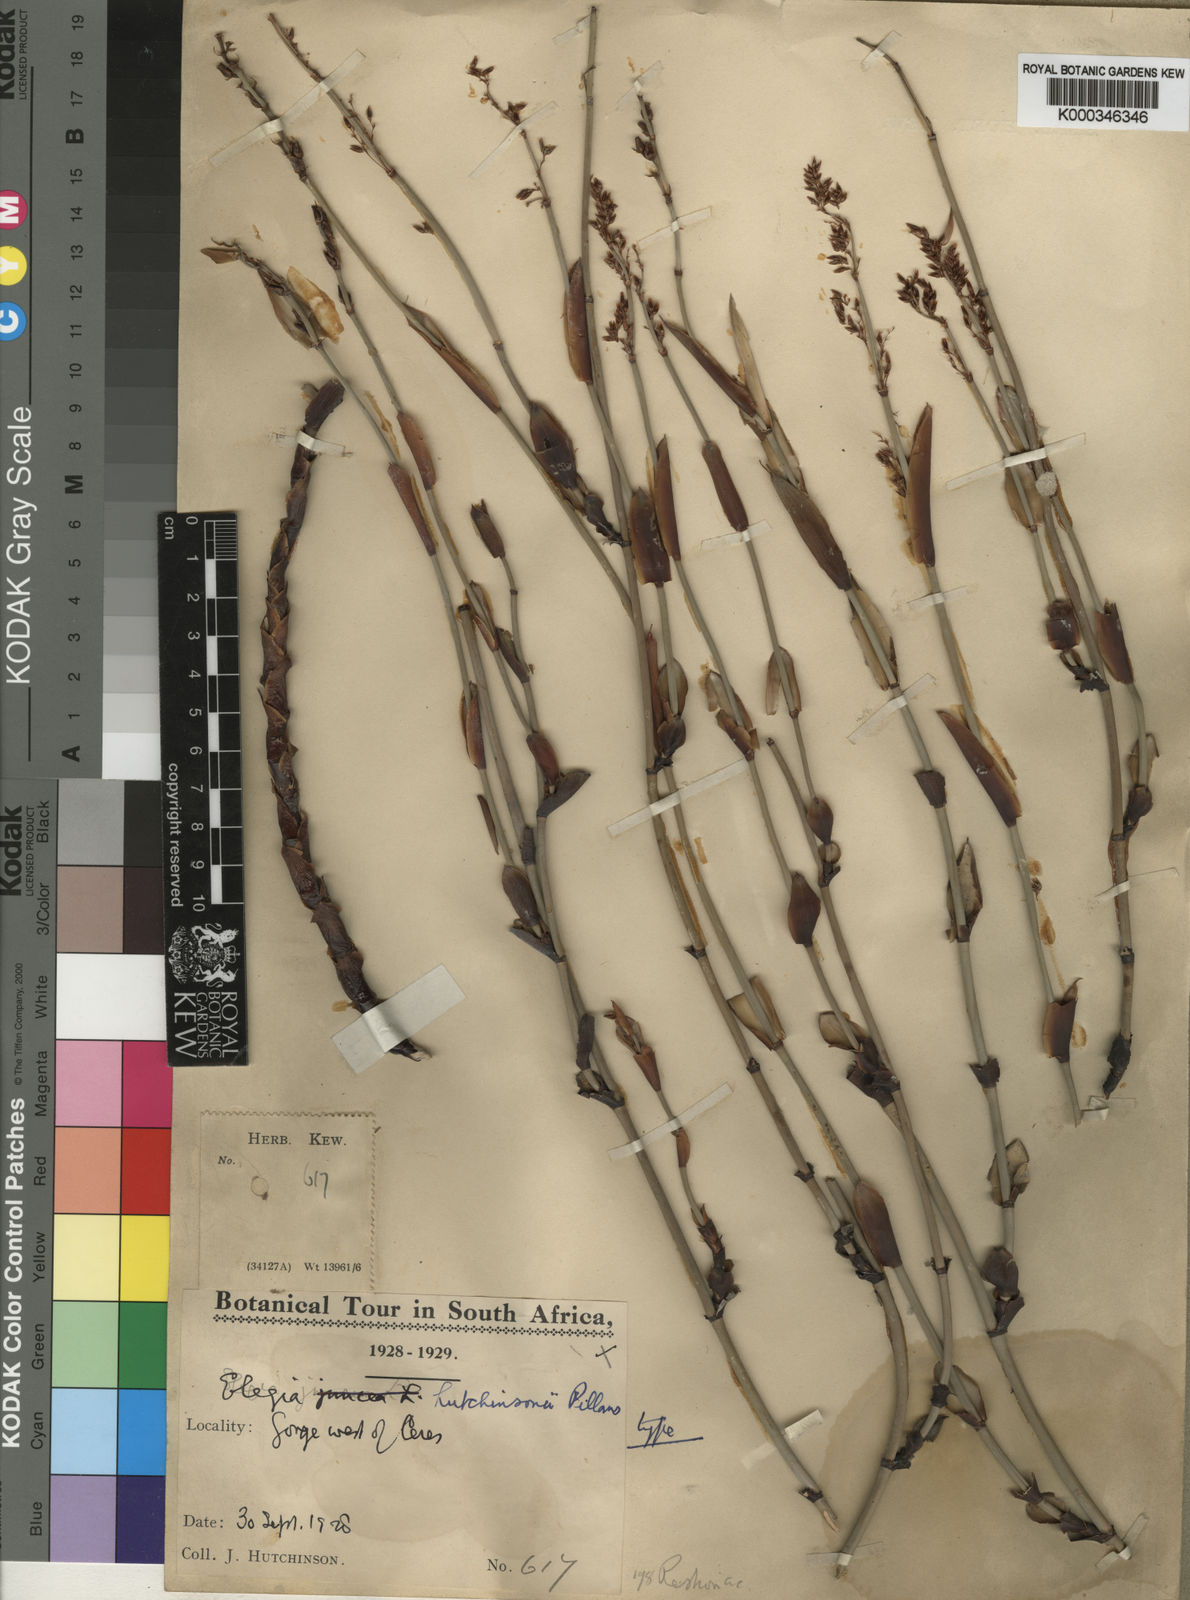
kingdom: Plantae
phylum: Tracheophyta
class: Liliopsida
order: Poales
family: Restionaceae
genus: Elegia
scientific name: Elegia hutchinsonii
